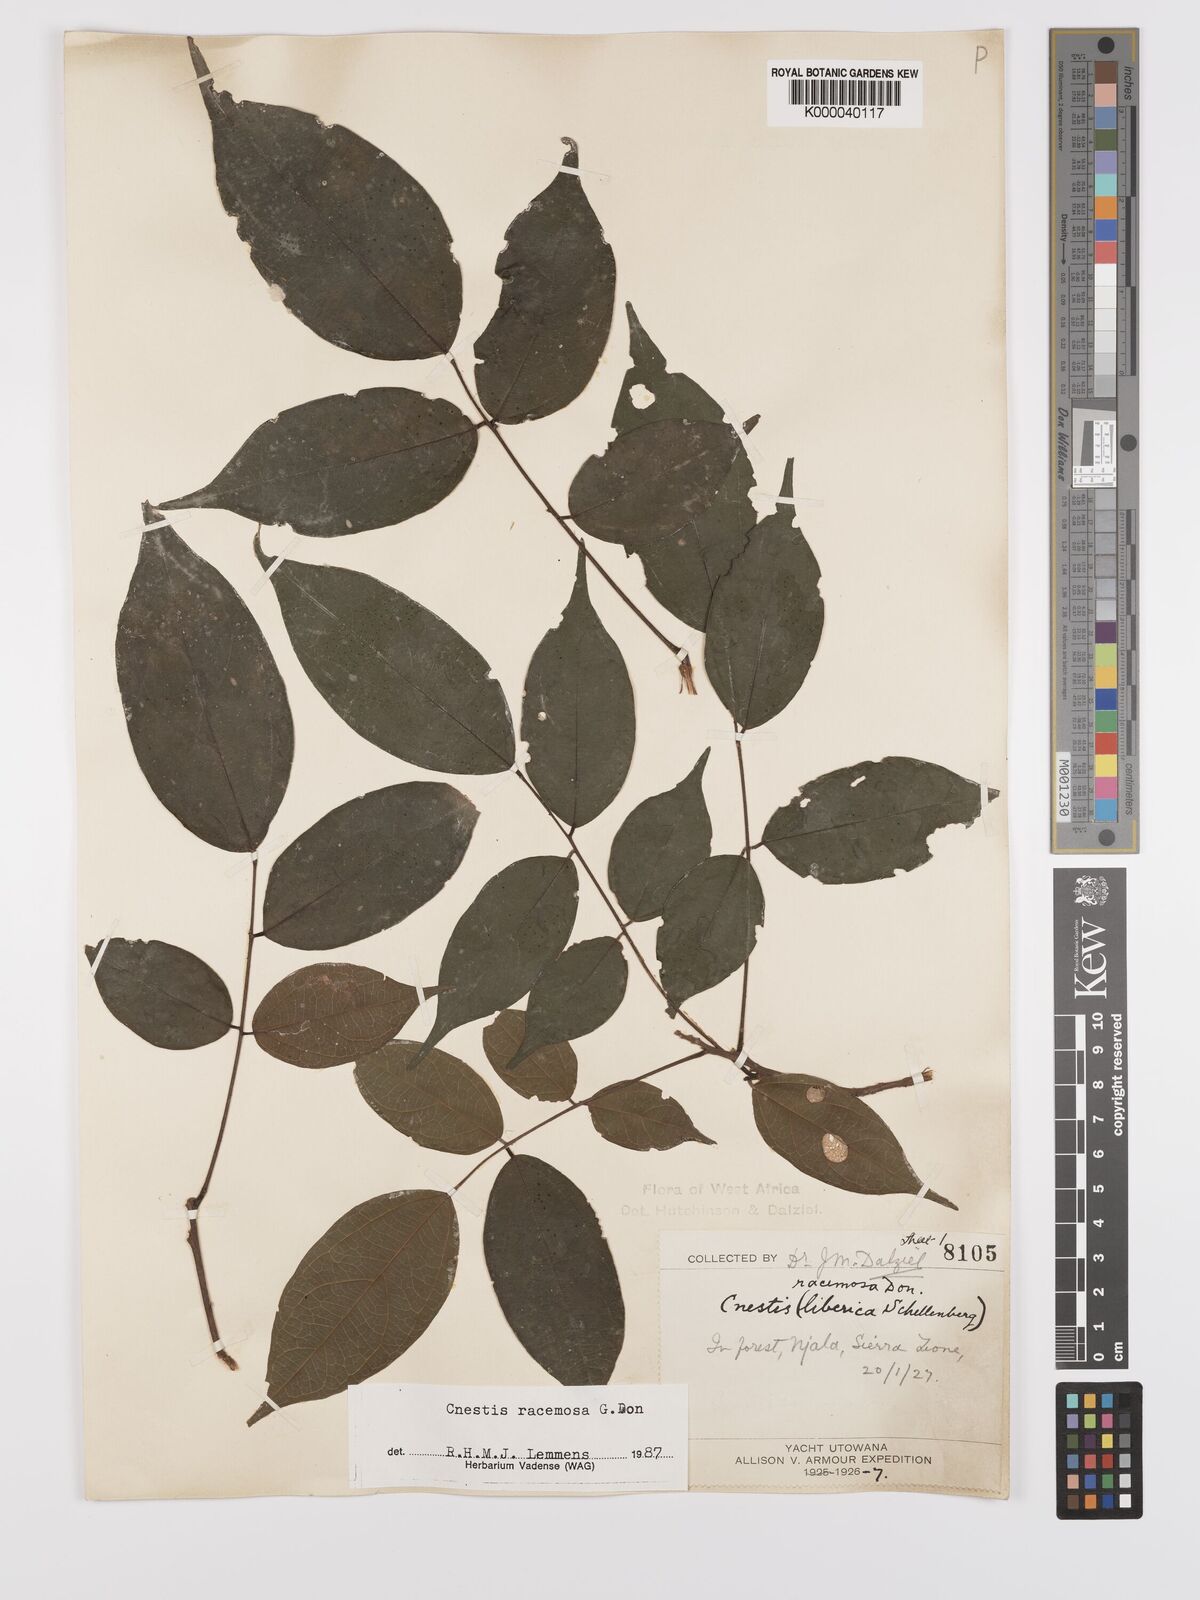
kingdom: Plantae
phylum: Tracheophyta
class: Magnoliopsida
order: Oxalidales
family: Connaraceae
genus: Cnestis
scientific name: Cnestis racemosa
